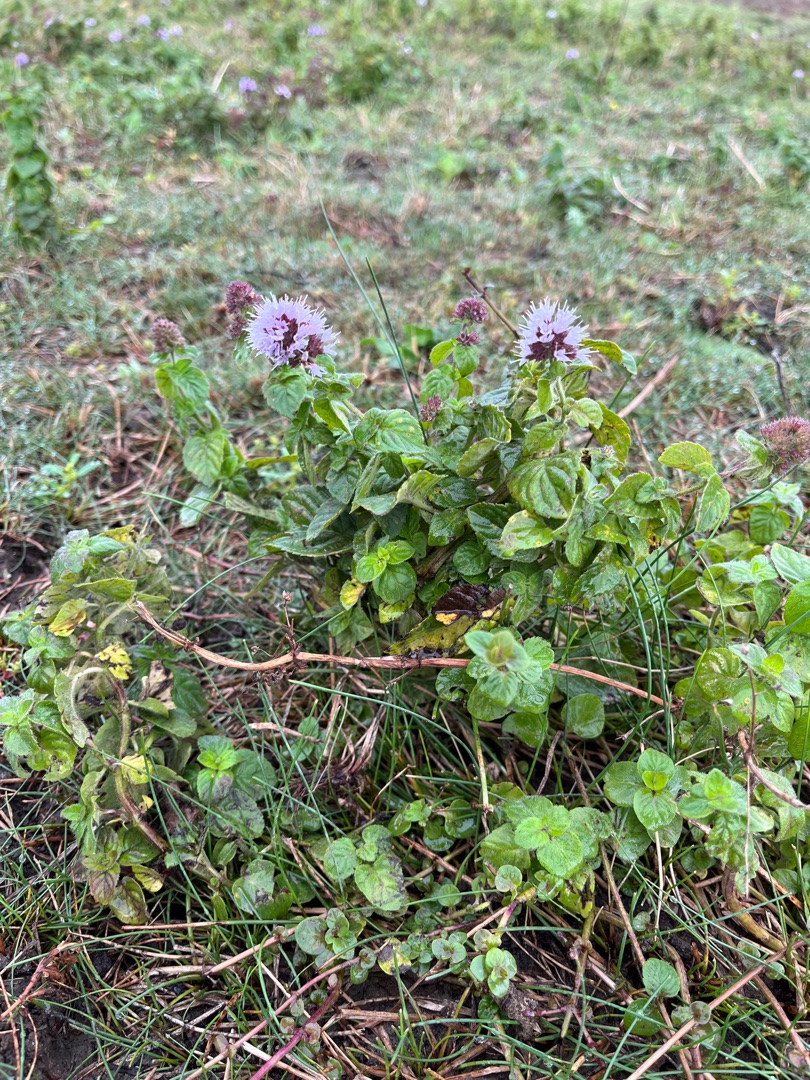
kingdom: Plantae
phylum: Tracheophyta
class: Magnoliopsida
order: Lamiales
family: Lamiaceae
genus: Mentha
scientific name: Mentha aquatica
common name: Vand-mynte
